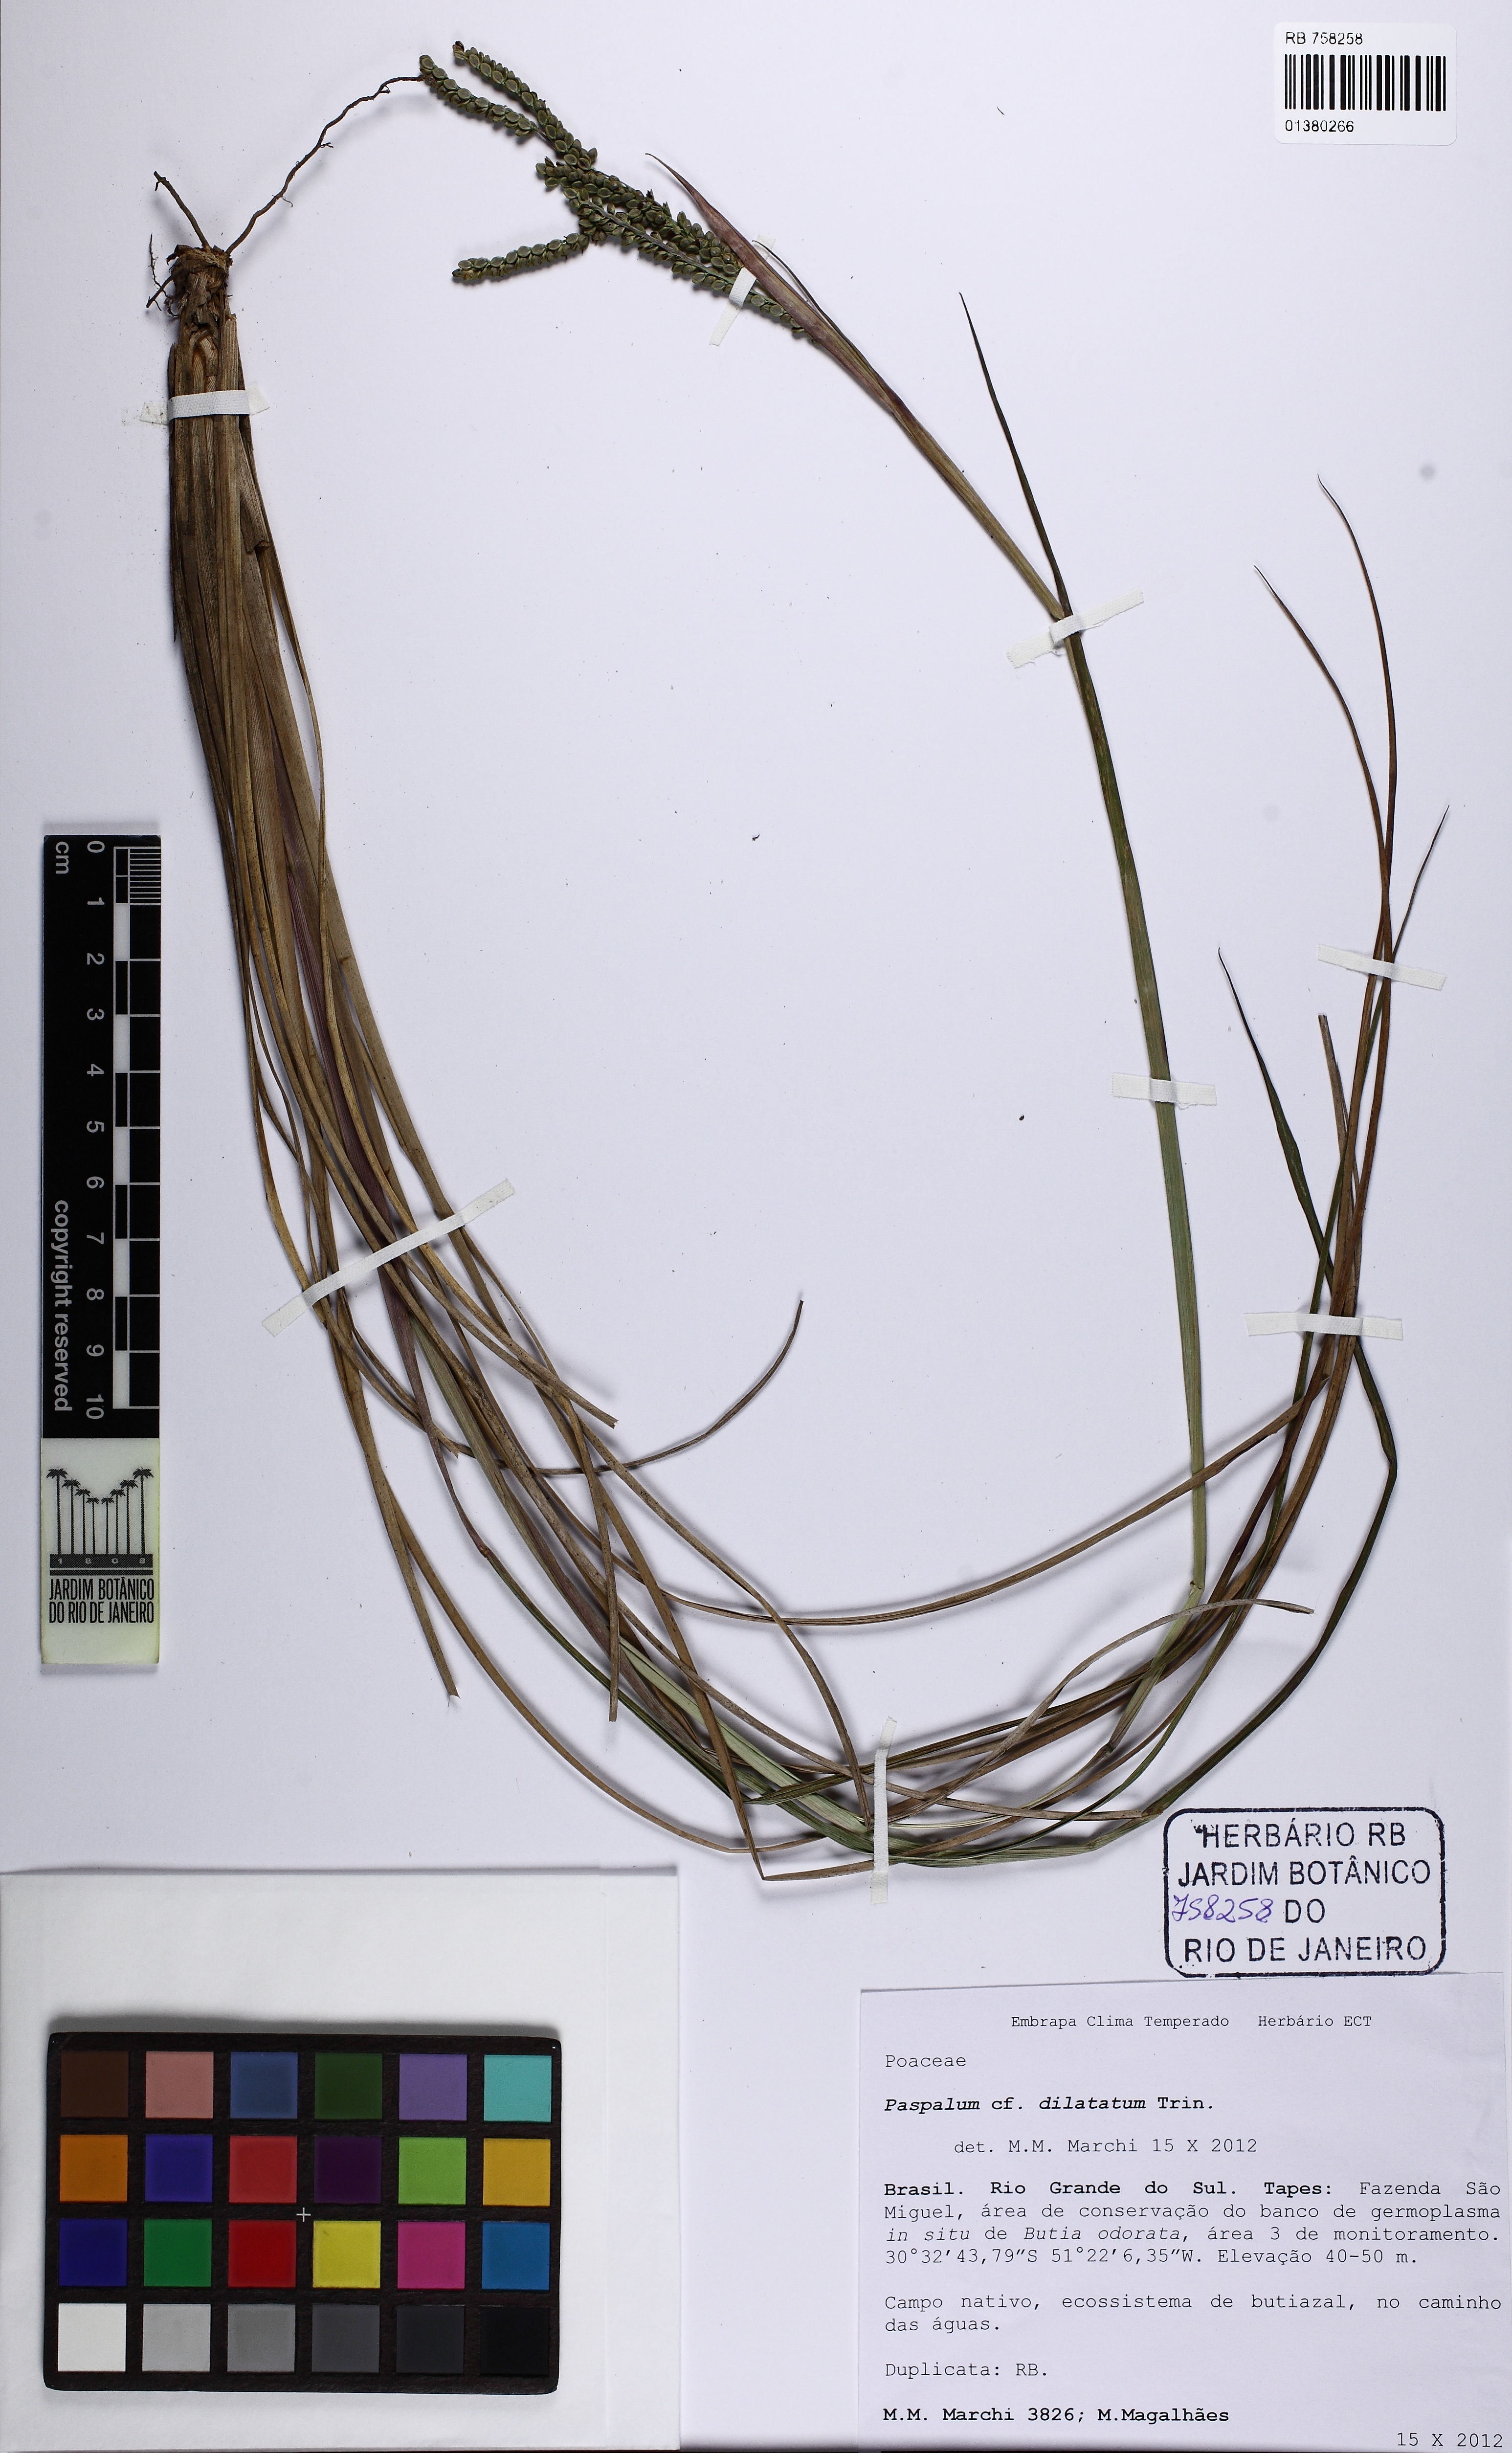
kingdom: Plantae
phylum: Tracheophyta
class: Liliopsida
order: Poales
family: Poaceae
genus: Paspalum
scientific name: Paspalum dilatatum
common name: Dallisgrass
